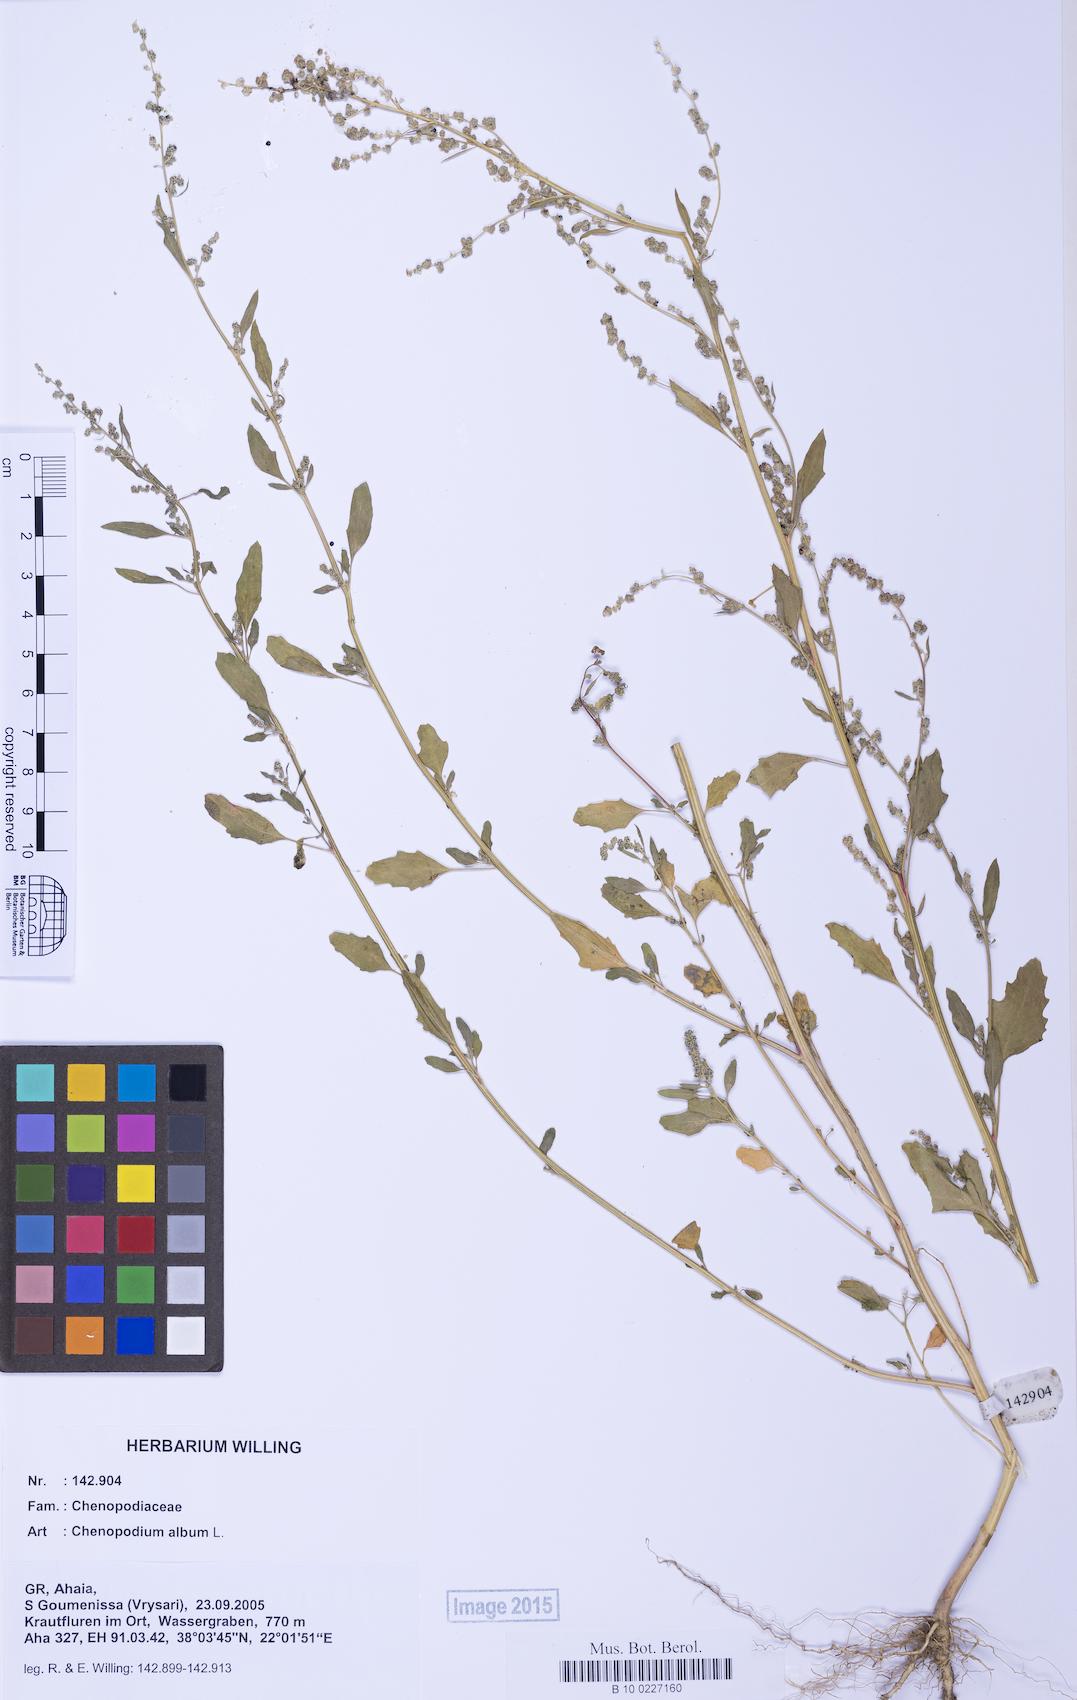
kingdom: Plantae
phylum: Tracheophyta
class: Magnoliopsida
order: Caryophyllales
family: Amaranthaceae
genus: Chenopodium
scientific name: Chenopodium album
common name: Fat-hen
